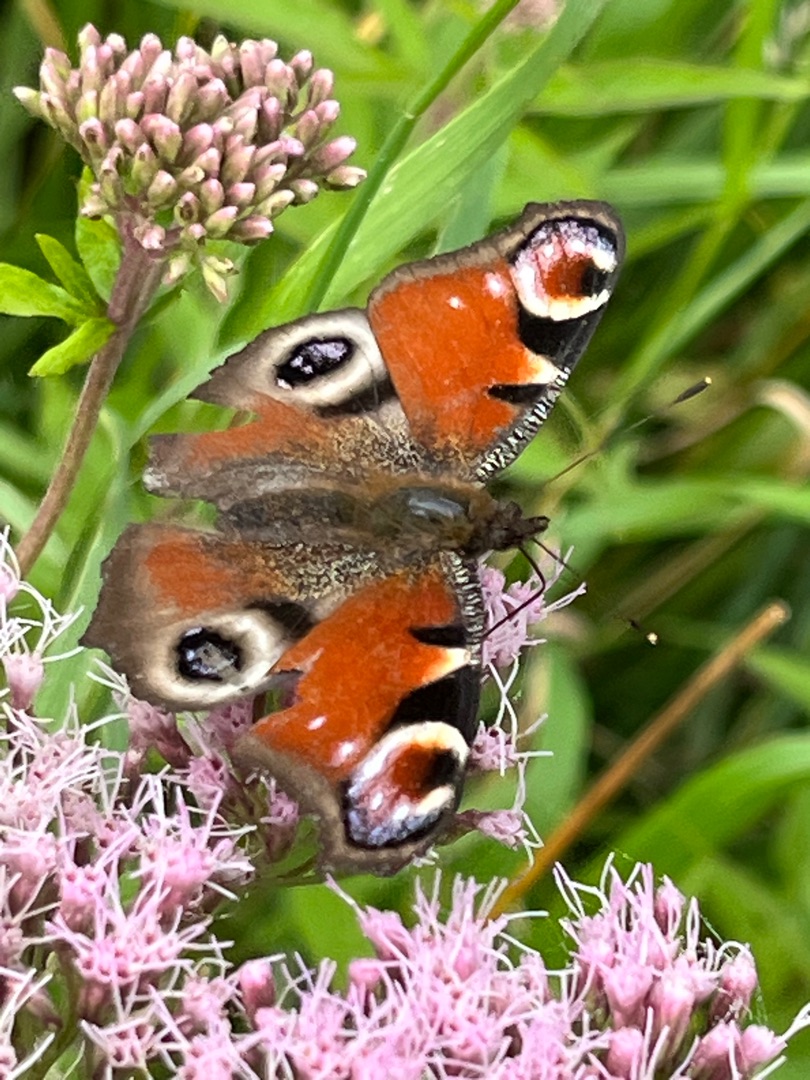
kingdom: Animalia
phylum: Arthropoda
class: Insecta
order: Lepidoptera
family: Nymphalidae
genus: Aglais
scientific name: Aglais io
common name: Dagpåfugleøje
